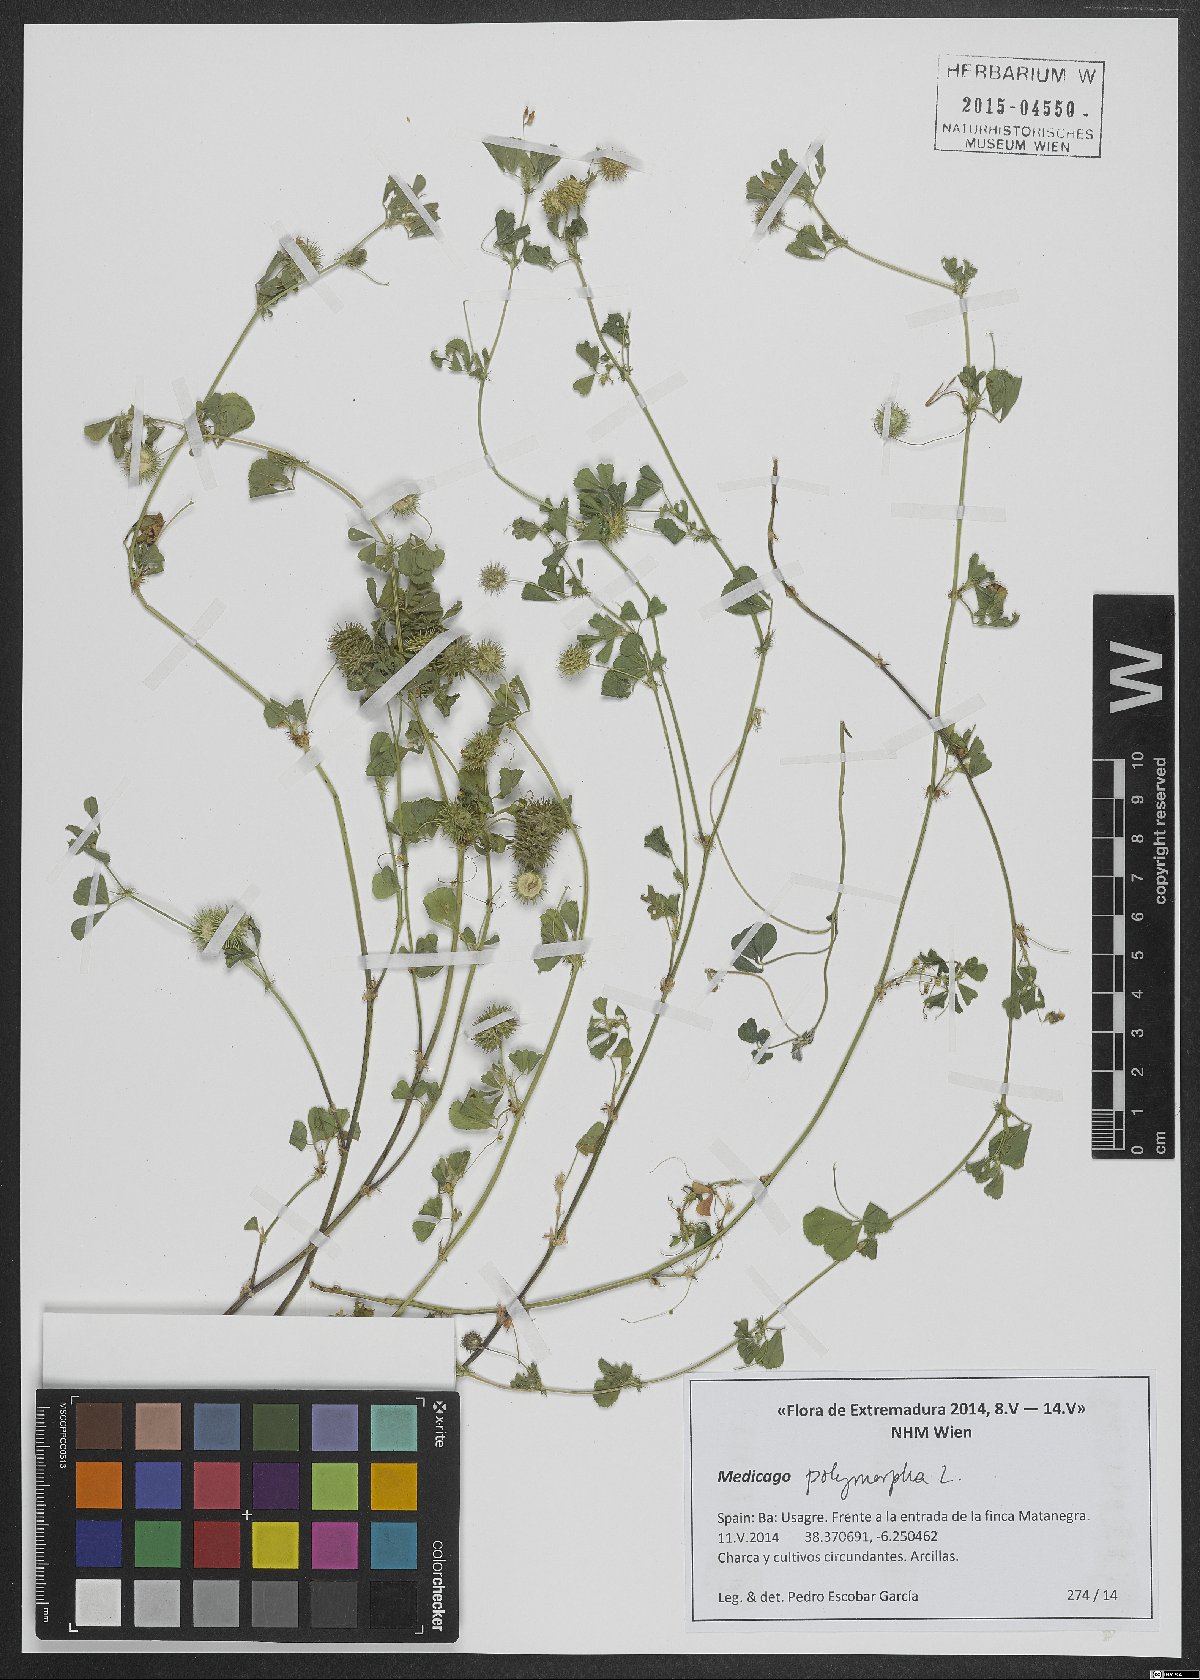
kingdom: Plantae
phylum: Tracheophyta
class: Magnoliopsida
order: Fabales
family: Fabaceae
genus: Medicago
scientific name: Medicago polymorpha
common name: Burclover
